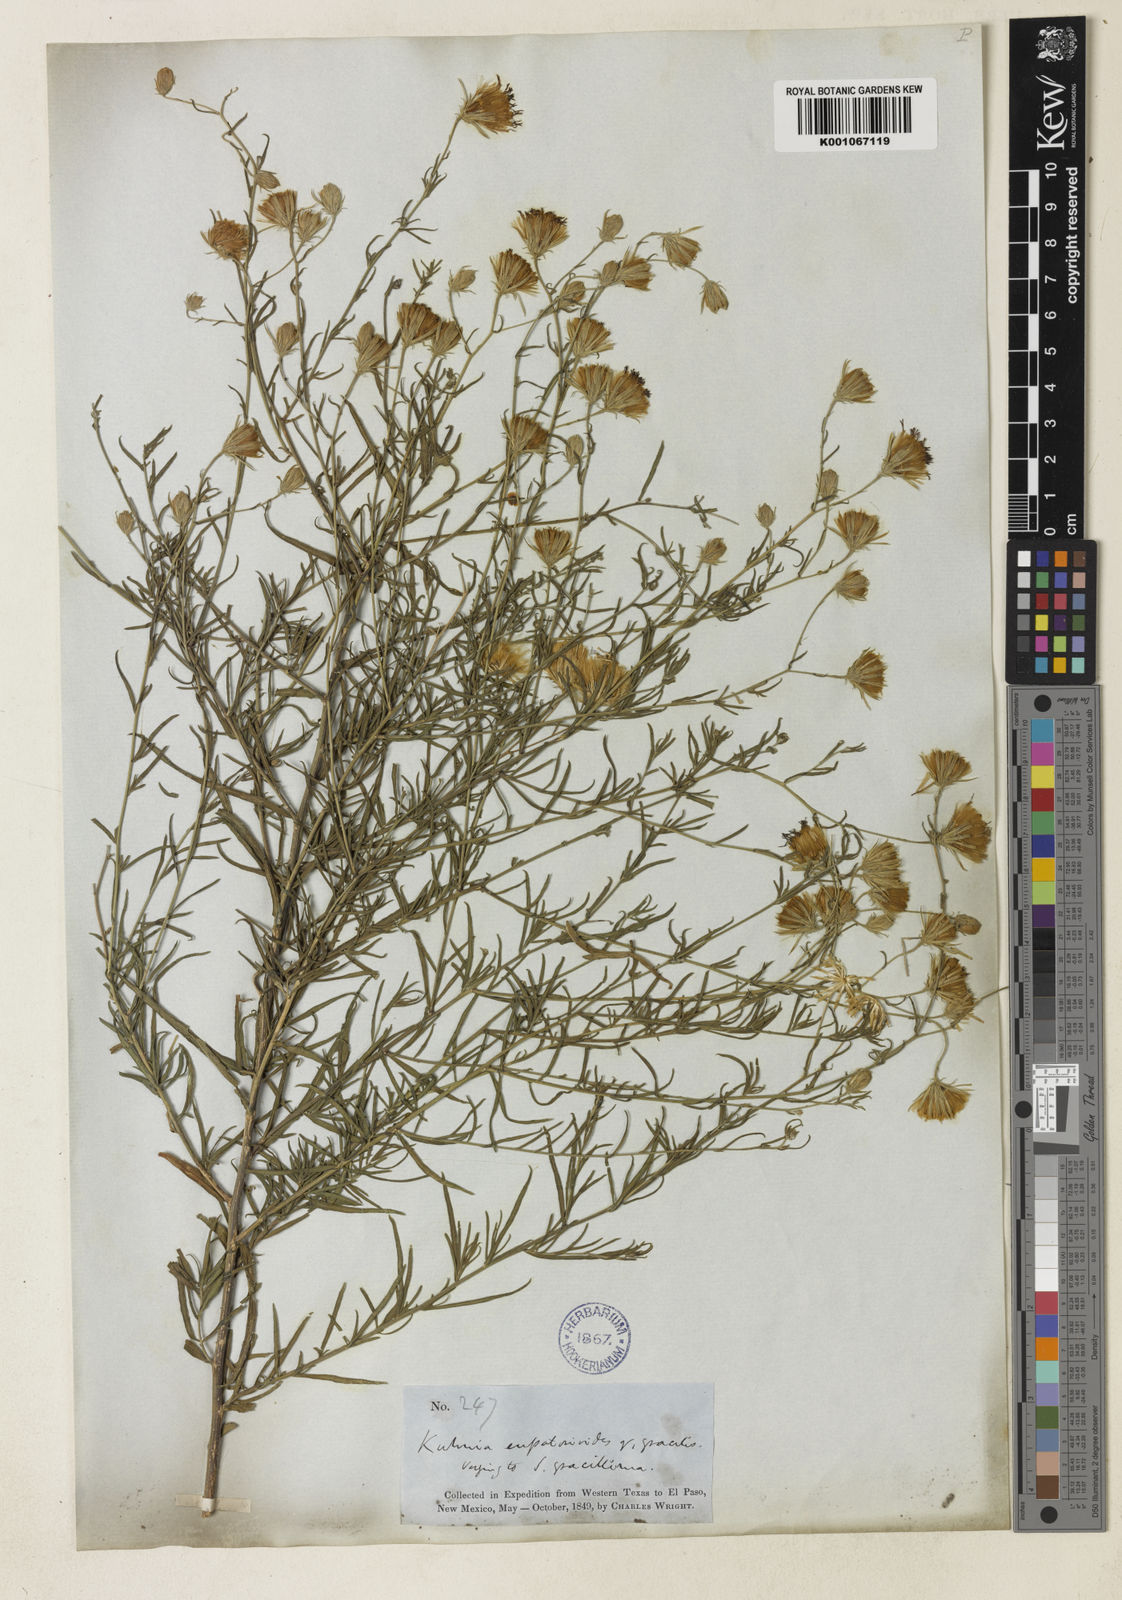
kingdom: Plantae
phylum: Tracheophyta
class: Magnoliopsida
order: Asterales
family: Asteraceae
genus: Brickellia
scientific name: Brickellia
